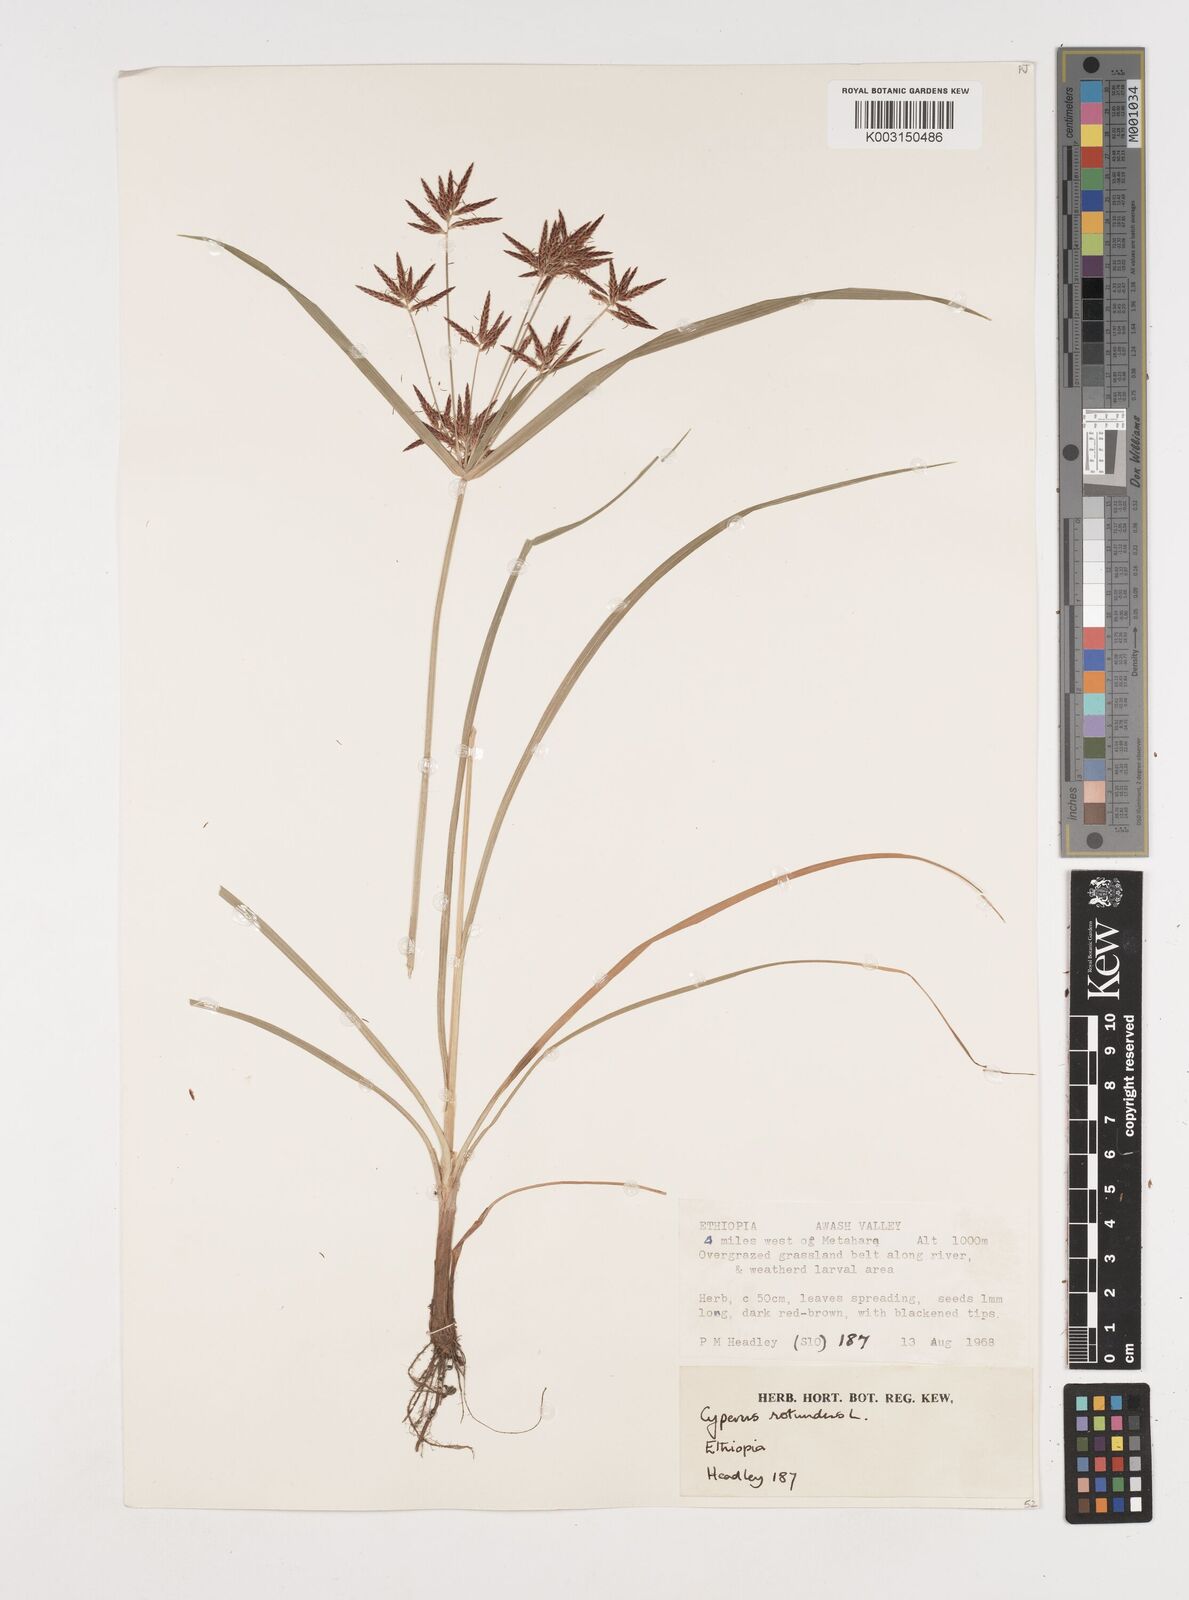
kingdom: Plantae
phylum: Tracheophyta
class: Liliopsida
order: Poales
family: Cyperaceae
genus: Cyperus
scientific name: Cyperus rotundus
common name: Nutgrass
